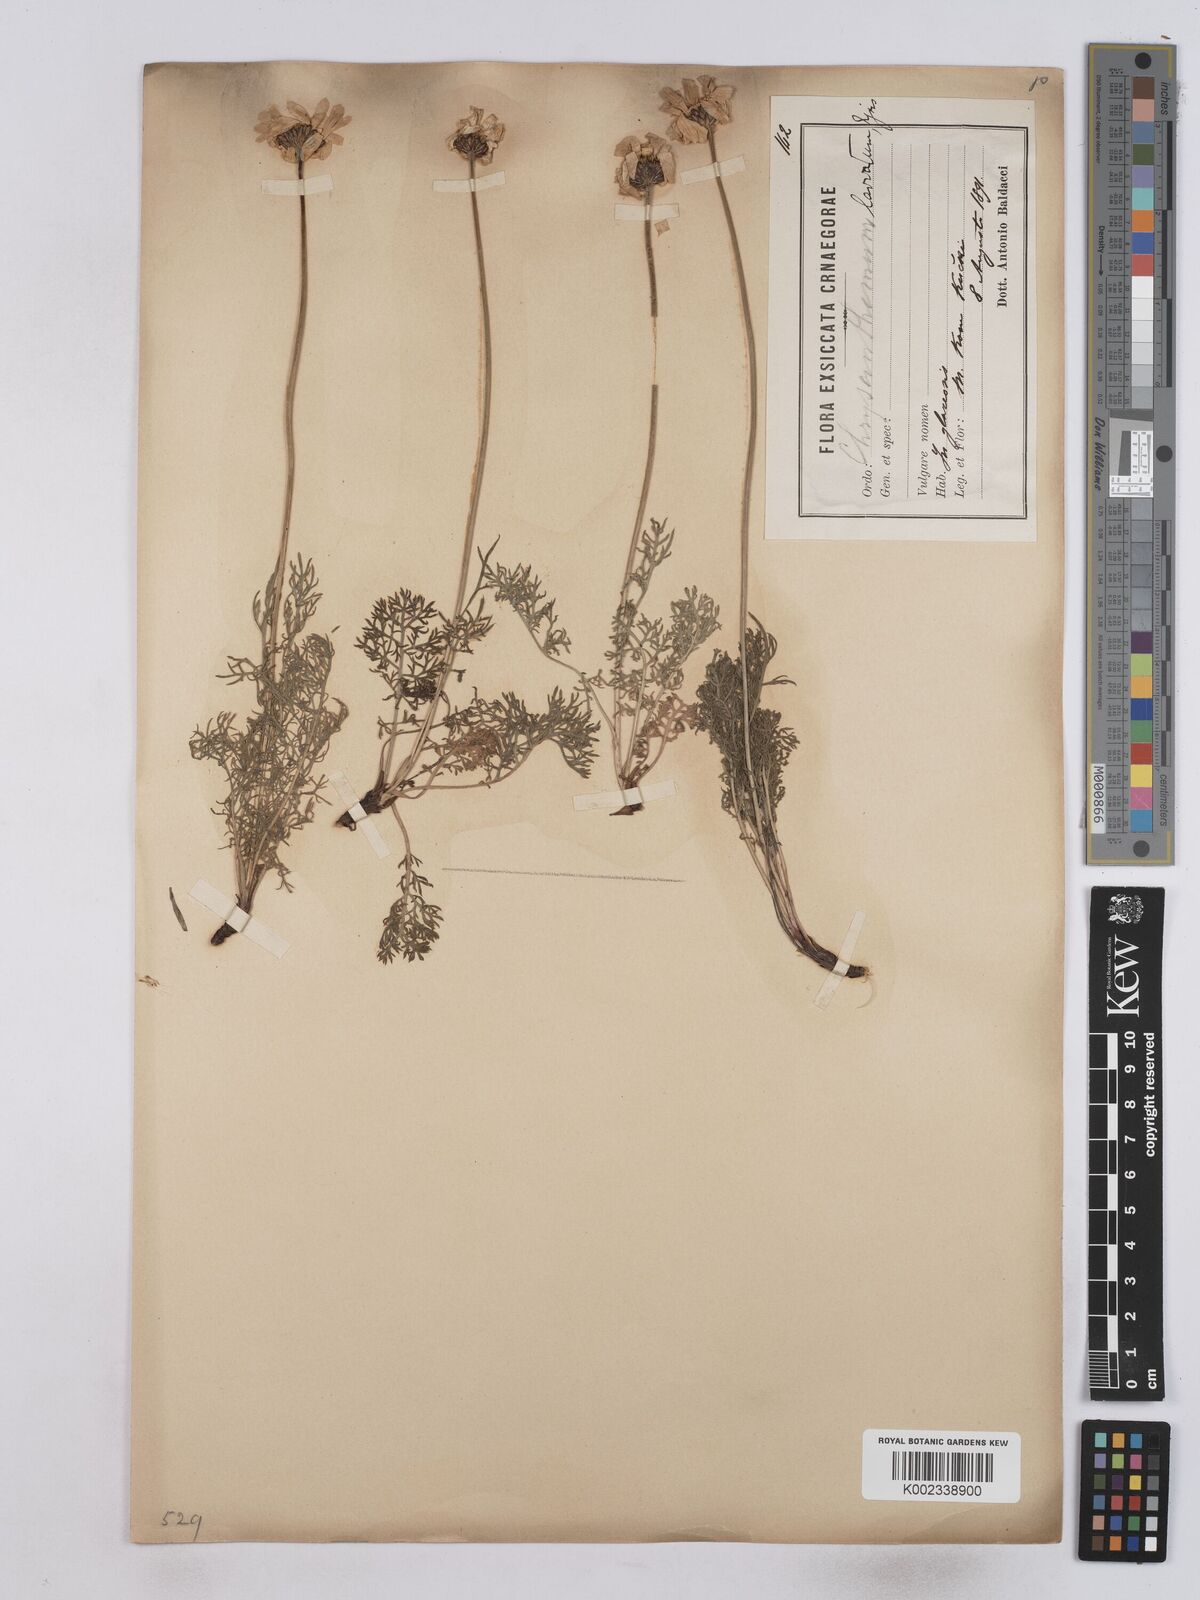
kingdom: Plantae
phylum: Tracheophyta
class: Magnoliopsida
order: Asterales
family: Asteraceae
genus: Leucanthemum
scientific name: Leucanthemum coronopifolium
